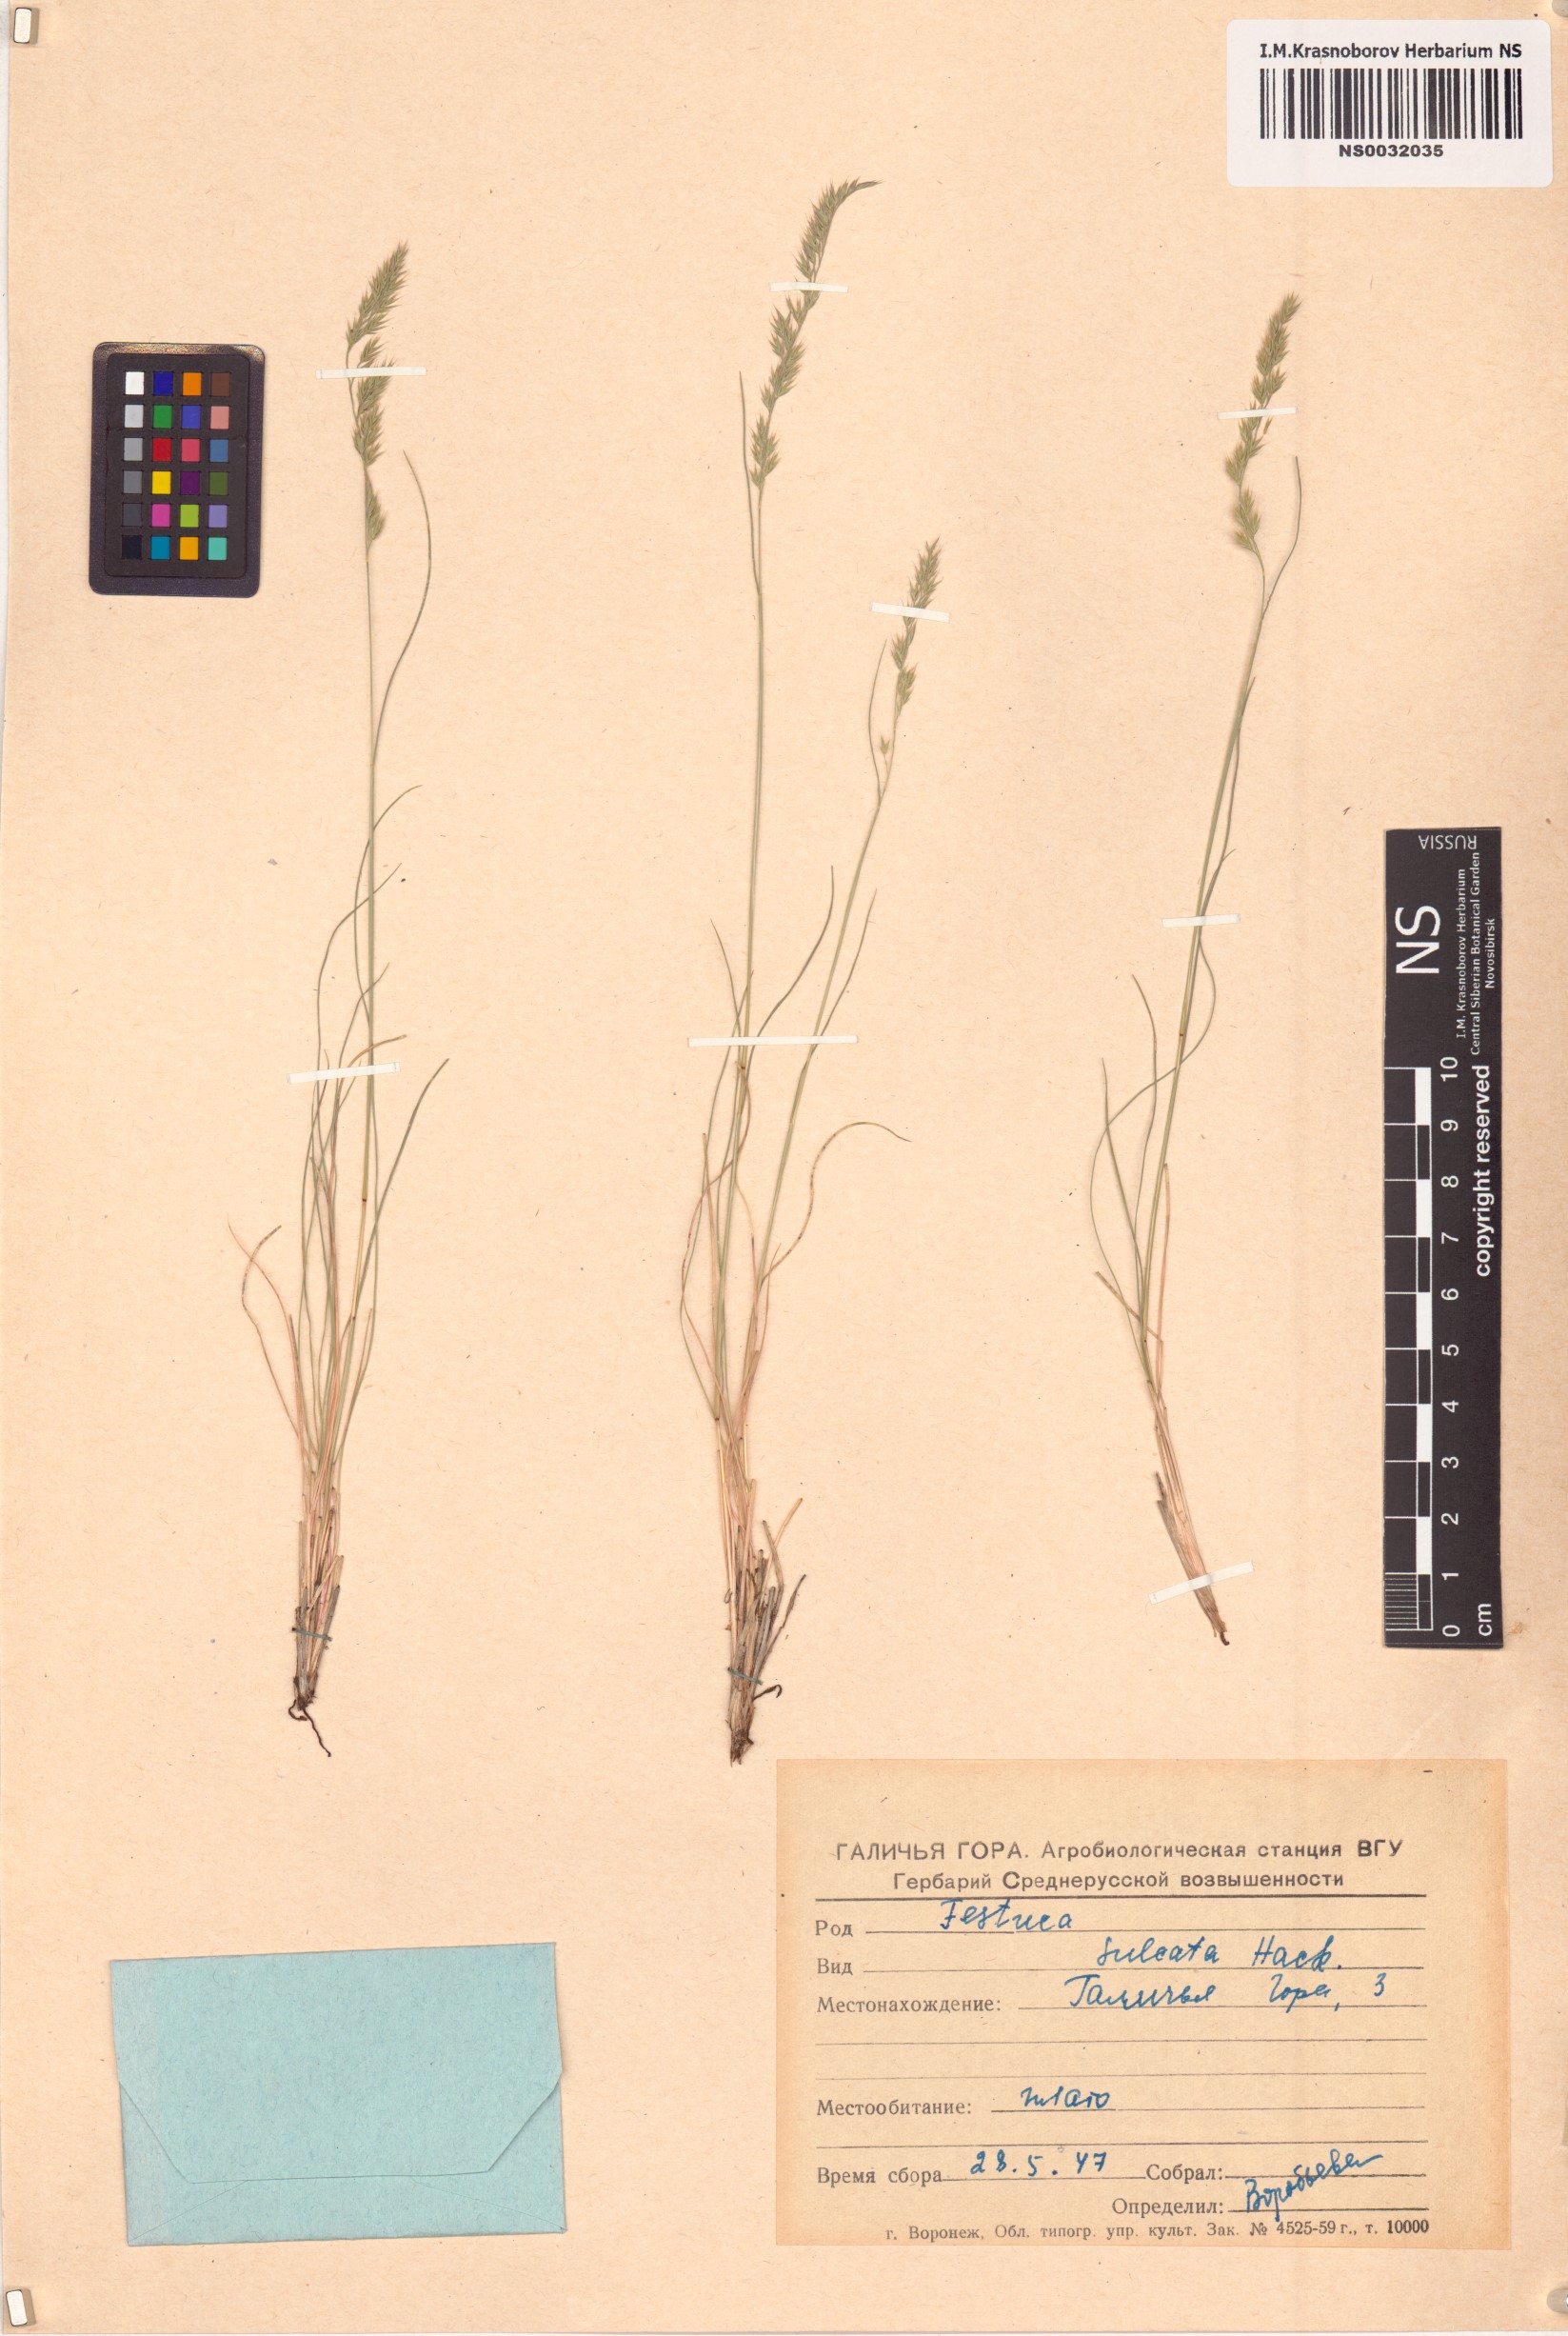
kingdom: Plantae
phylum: Tracheophyta
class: Liliopsida
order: Poales
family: Poaceae
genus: Festuca
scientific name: Festuca rupicola
